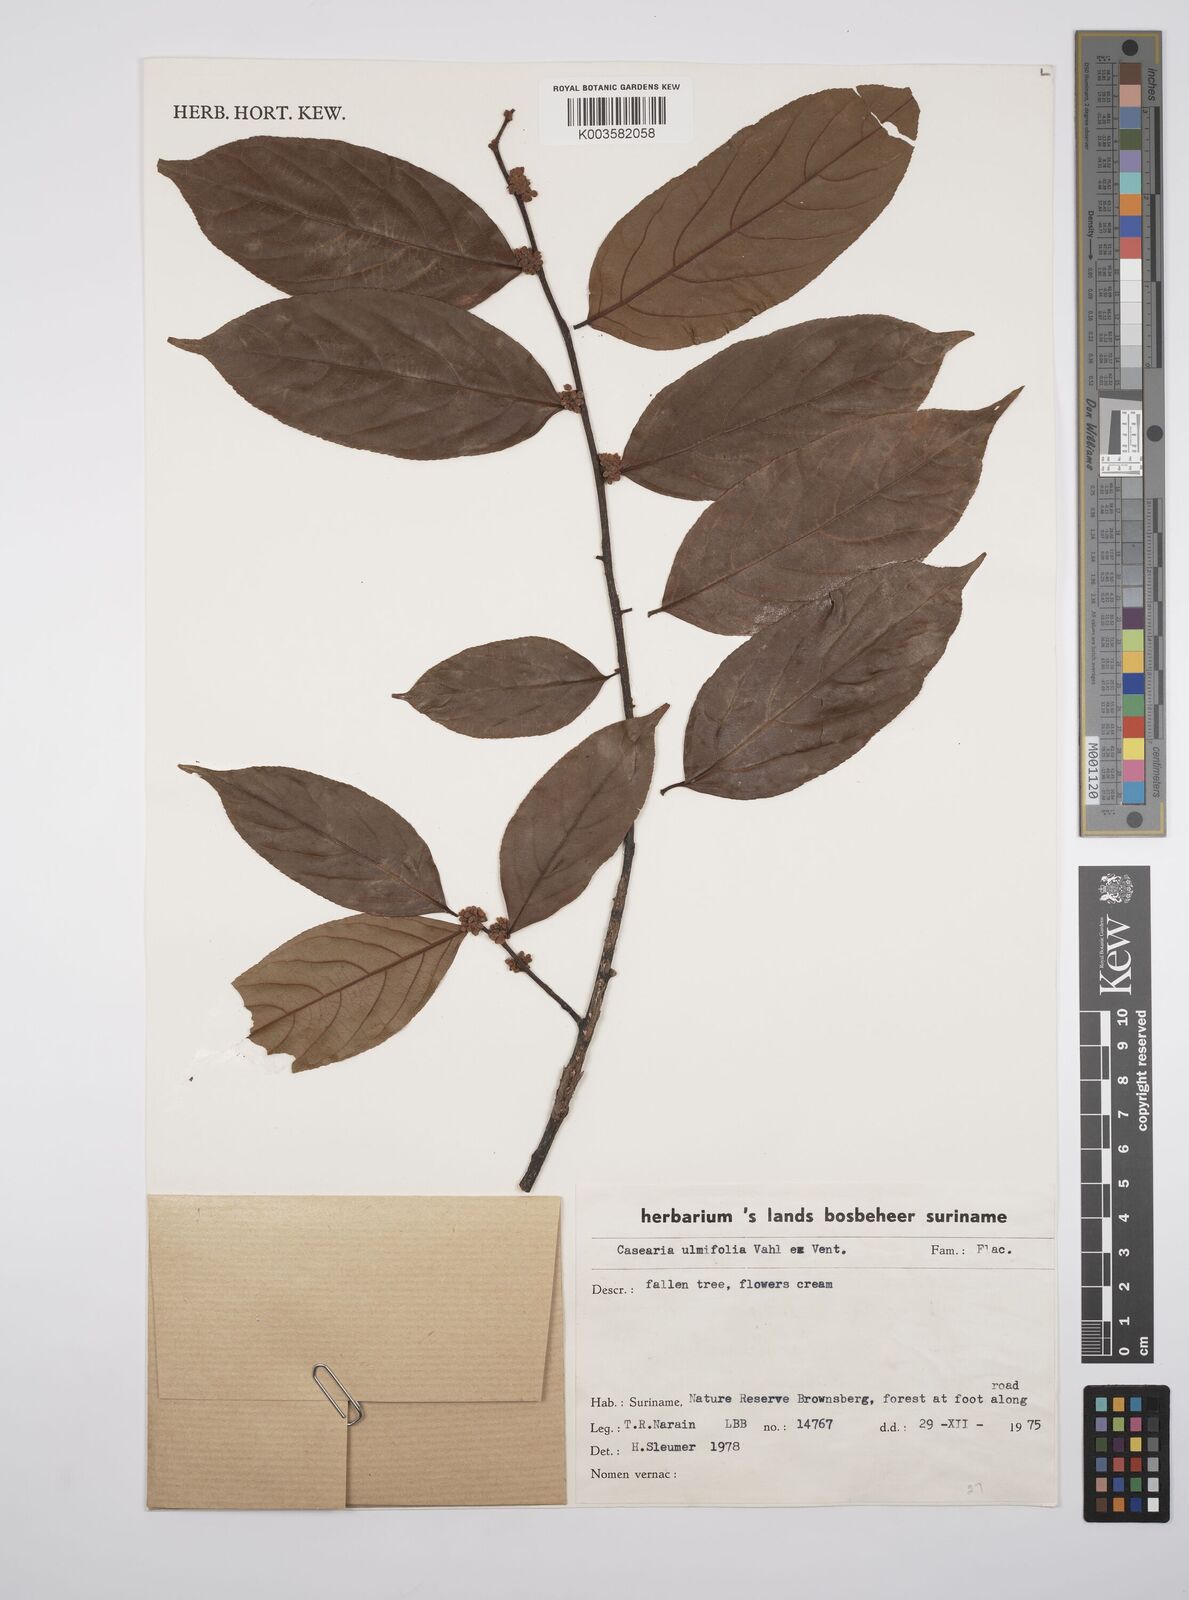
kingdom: Plantae
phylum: Tracheophyta
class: Magnoliopsida
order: Malpighiales
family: Salicaceae
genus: Casearia
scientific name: Casearia ulmifolia
